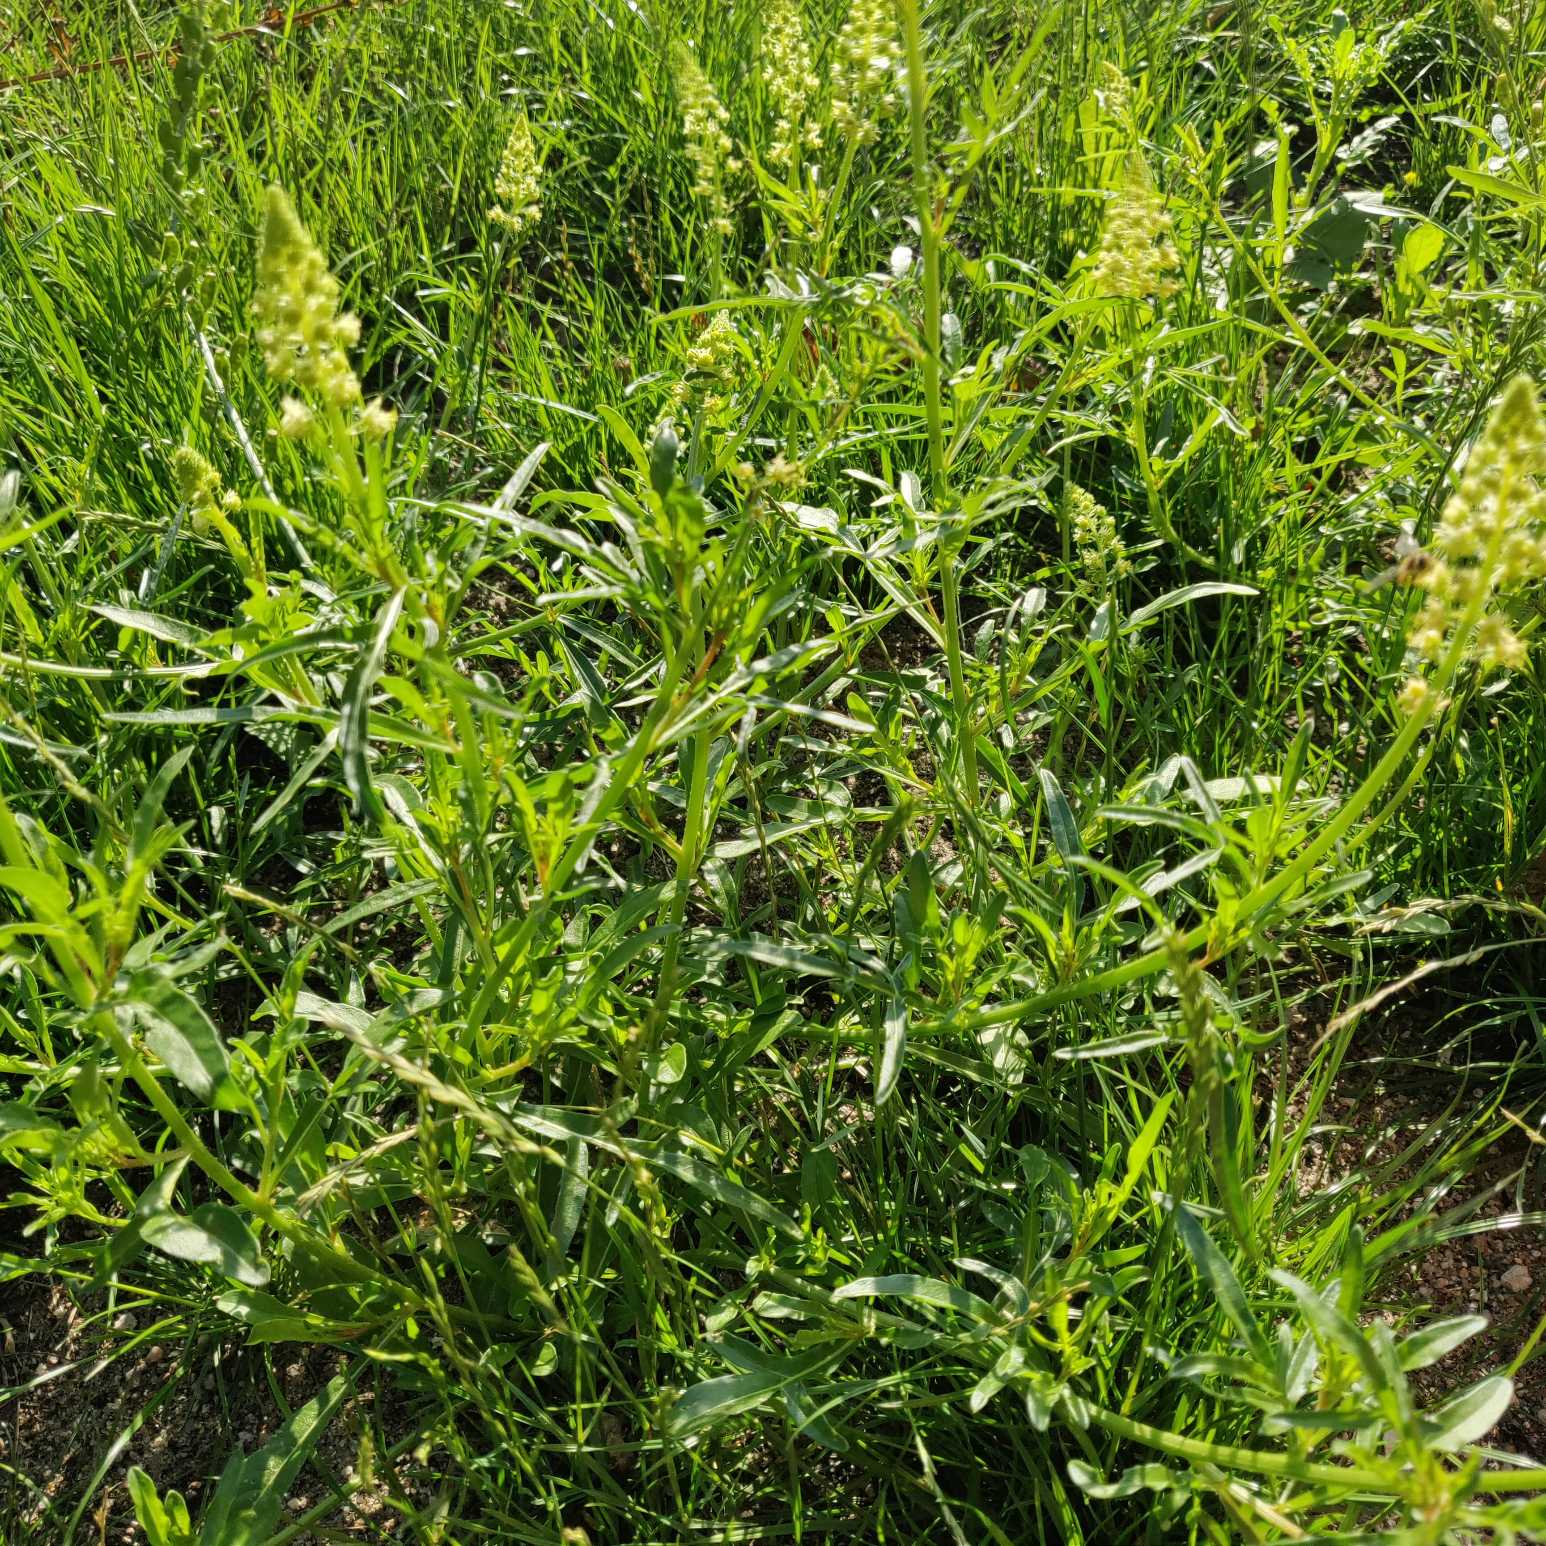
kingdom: Plantae
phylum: Tracheophyta
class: Magnoliopsida
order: Brassicales
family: Resedaceae
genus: Reseda
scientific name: Reseda lutea
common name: Gul reseda
